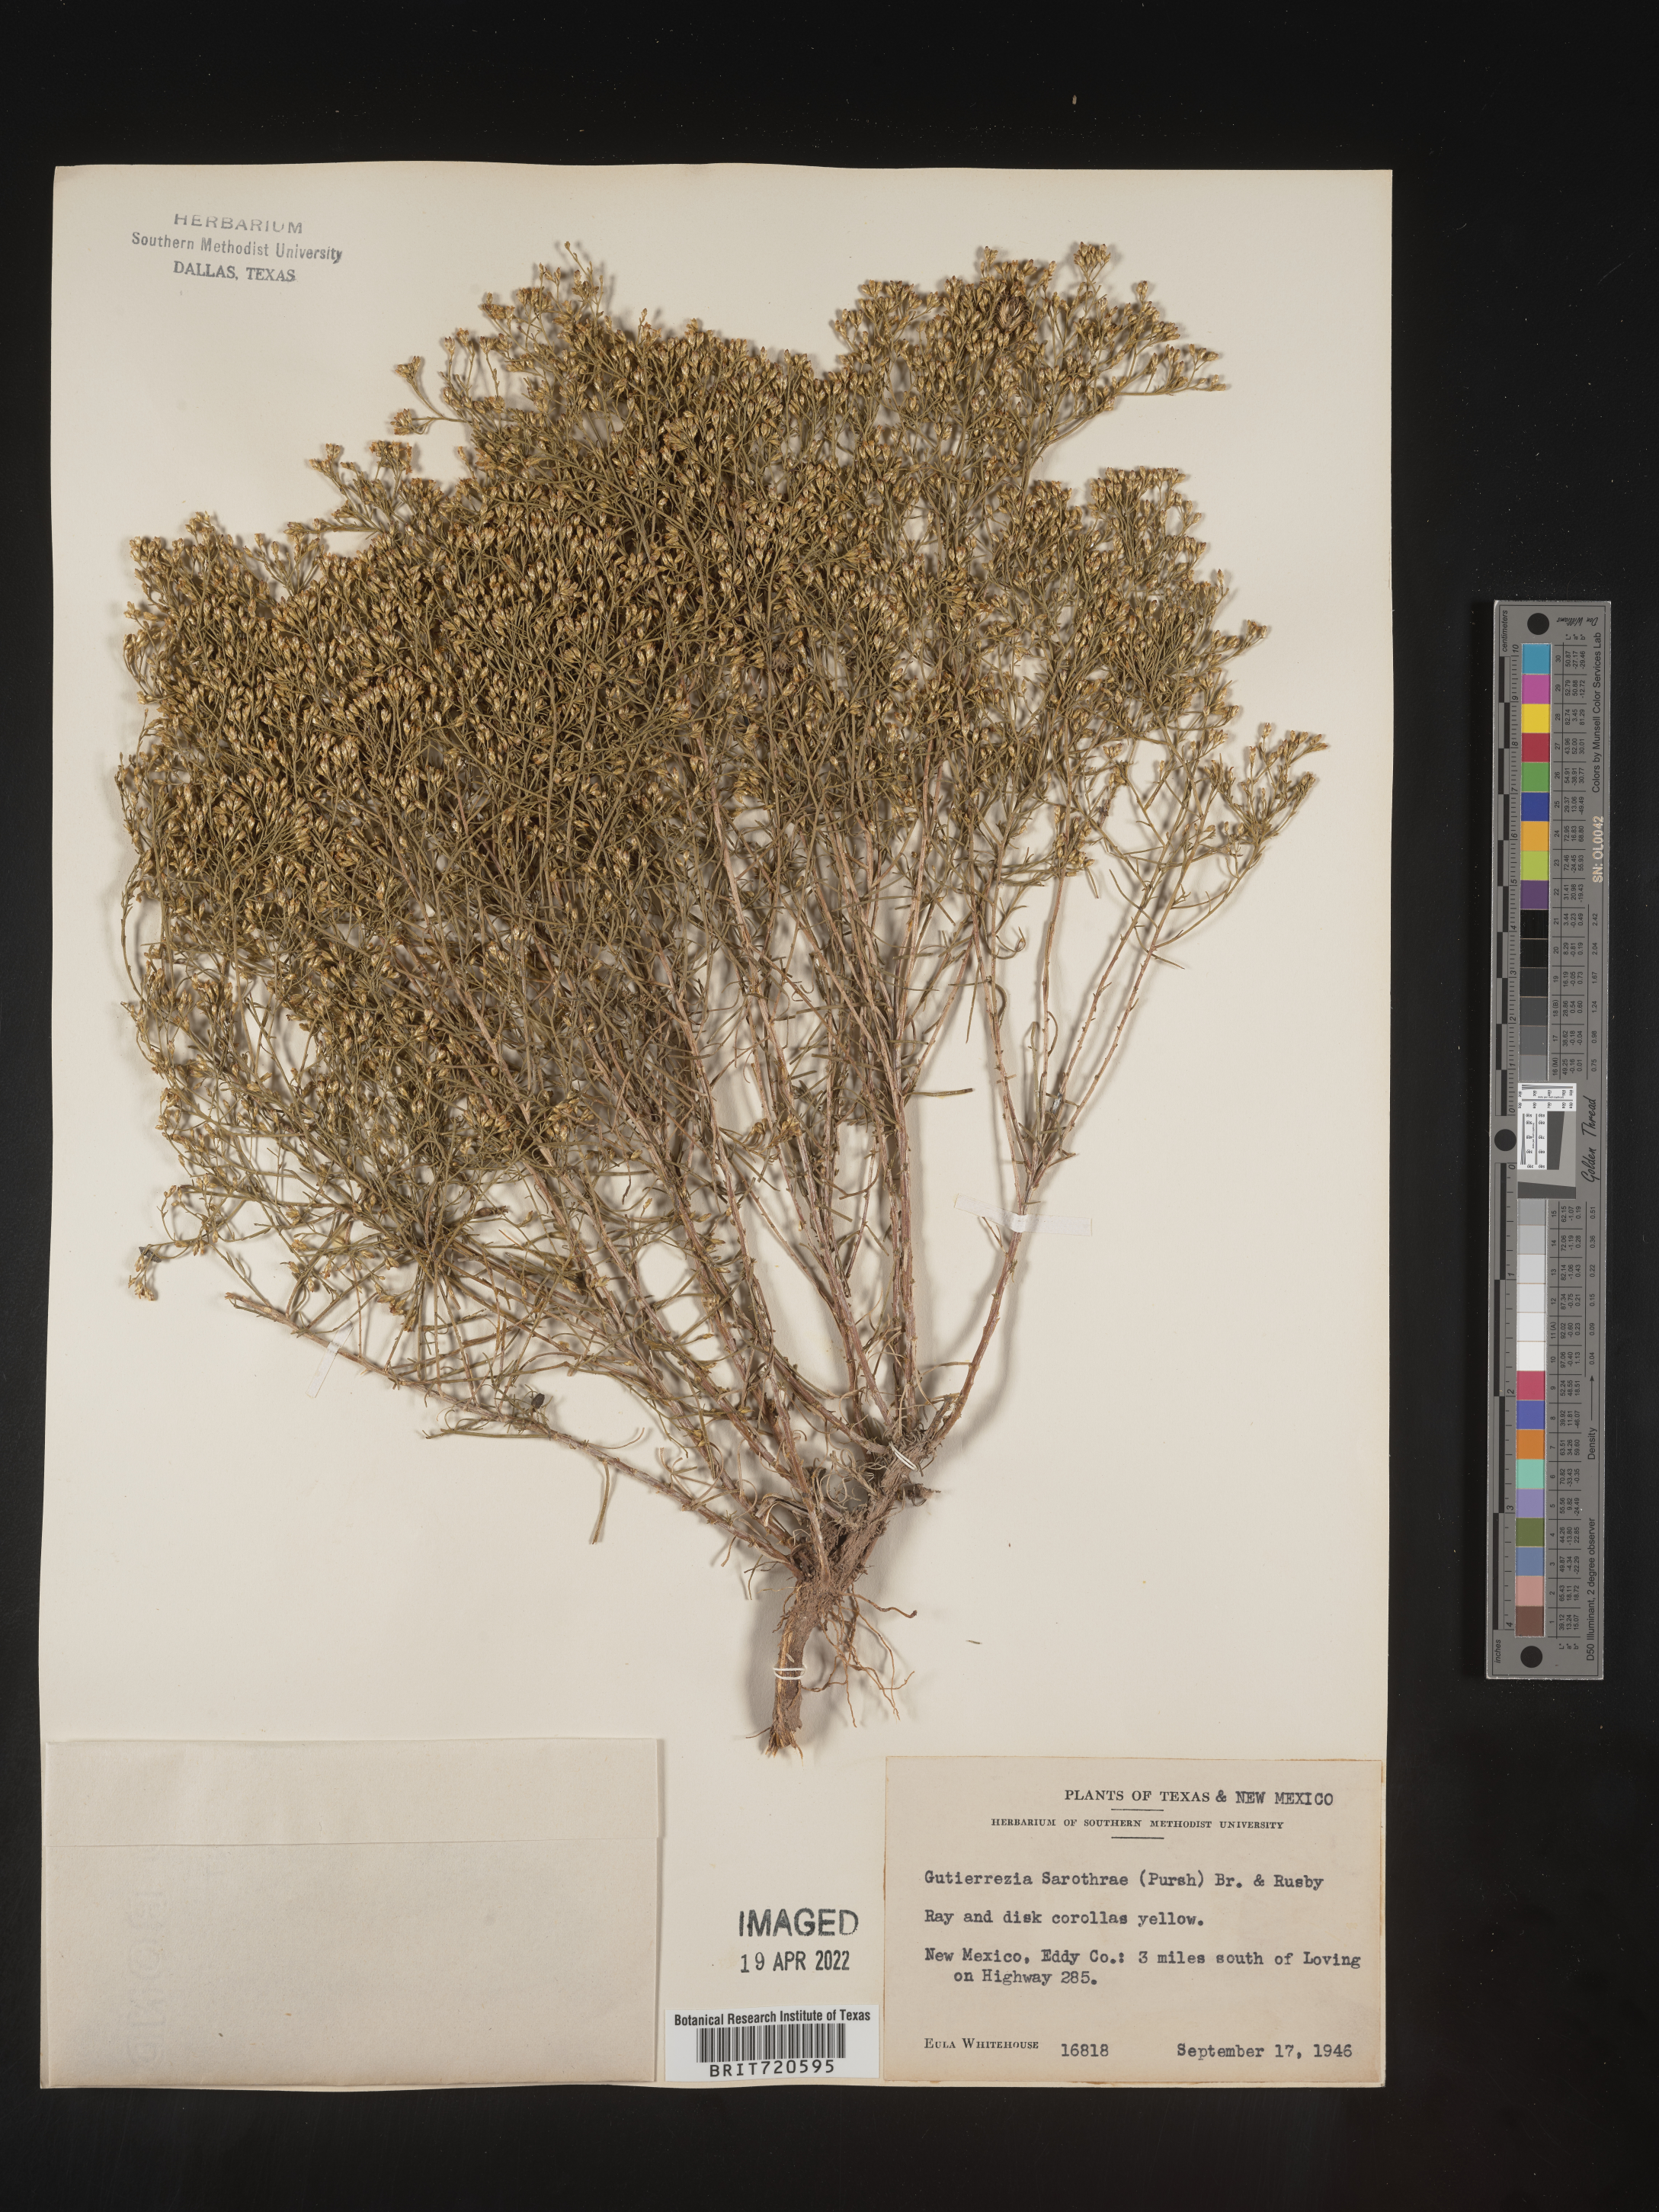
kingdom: Plantae
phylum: Tracheophyta
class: Magnoliopsida
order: Asterales
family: Asteraceae
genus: Gutierrezia
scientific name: Gutierrezia sarothrae
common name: Broom snakeweed
